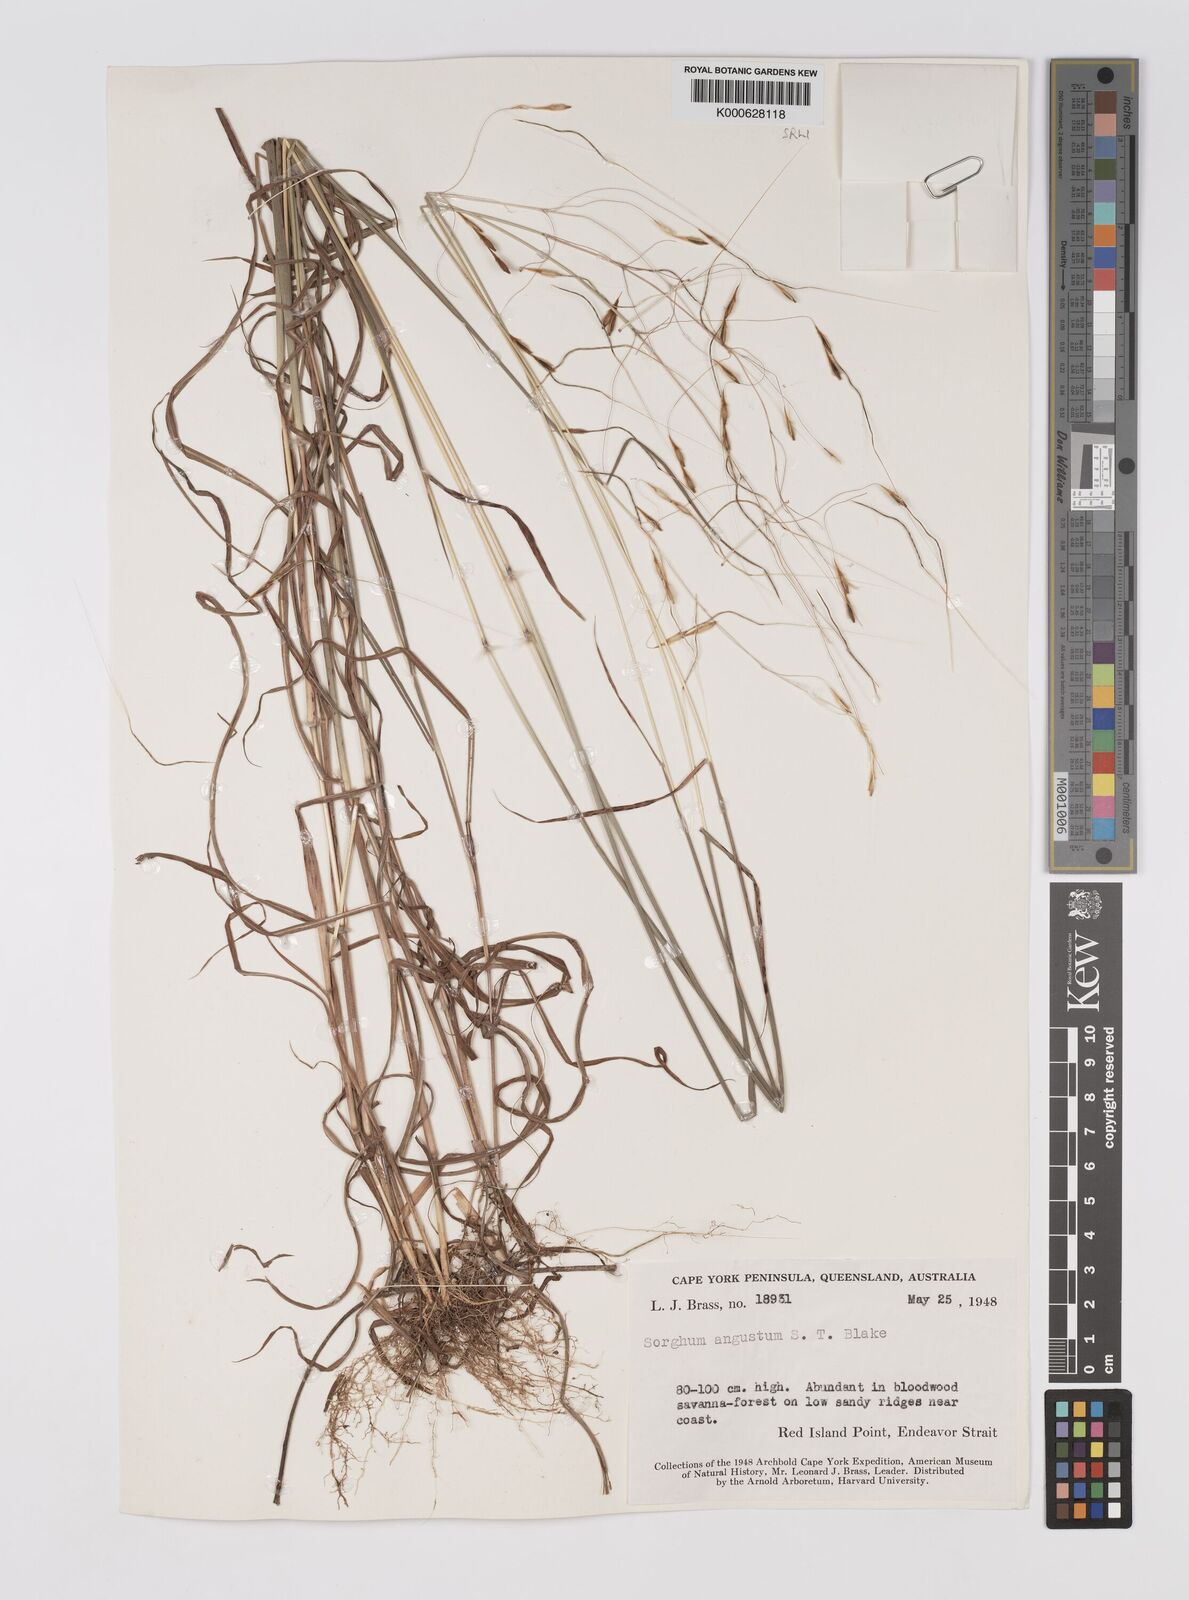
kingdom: Plantae
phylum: Tracheophyta
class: Liliopsida
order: Poales
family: Poaceae
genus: Sarga
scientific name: Sarga angusta
